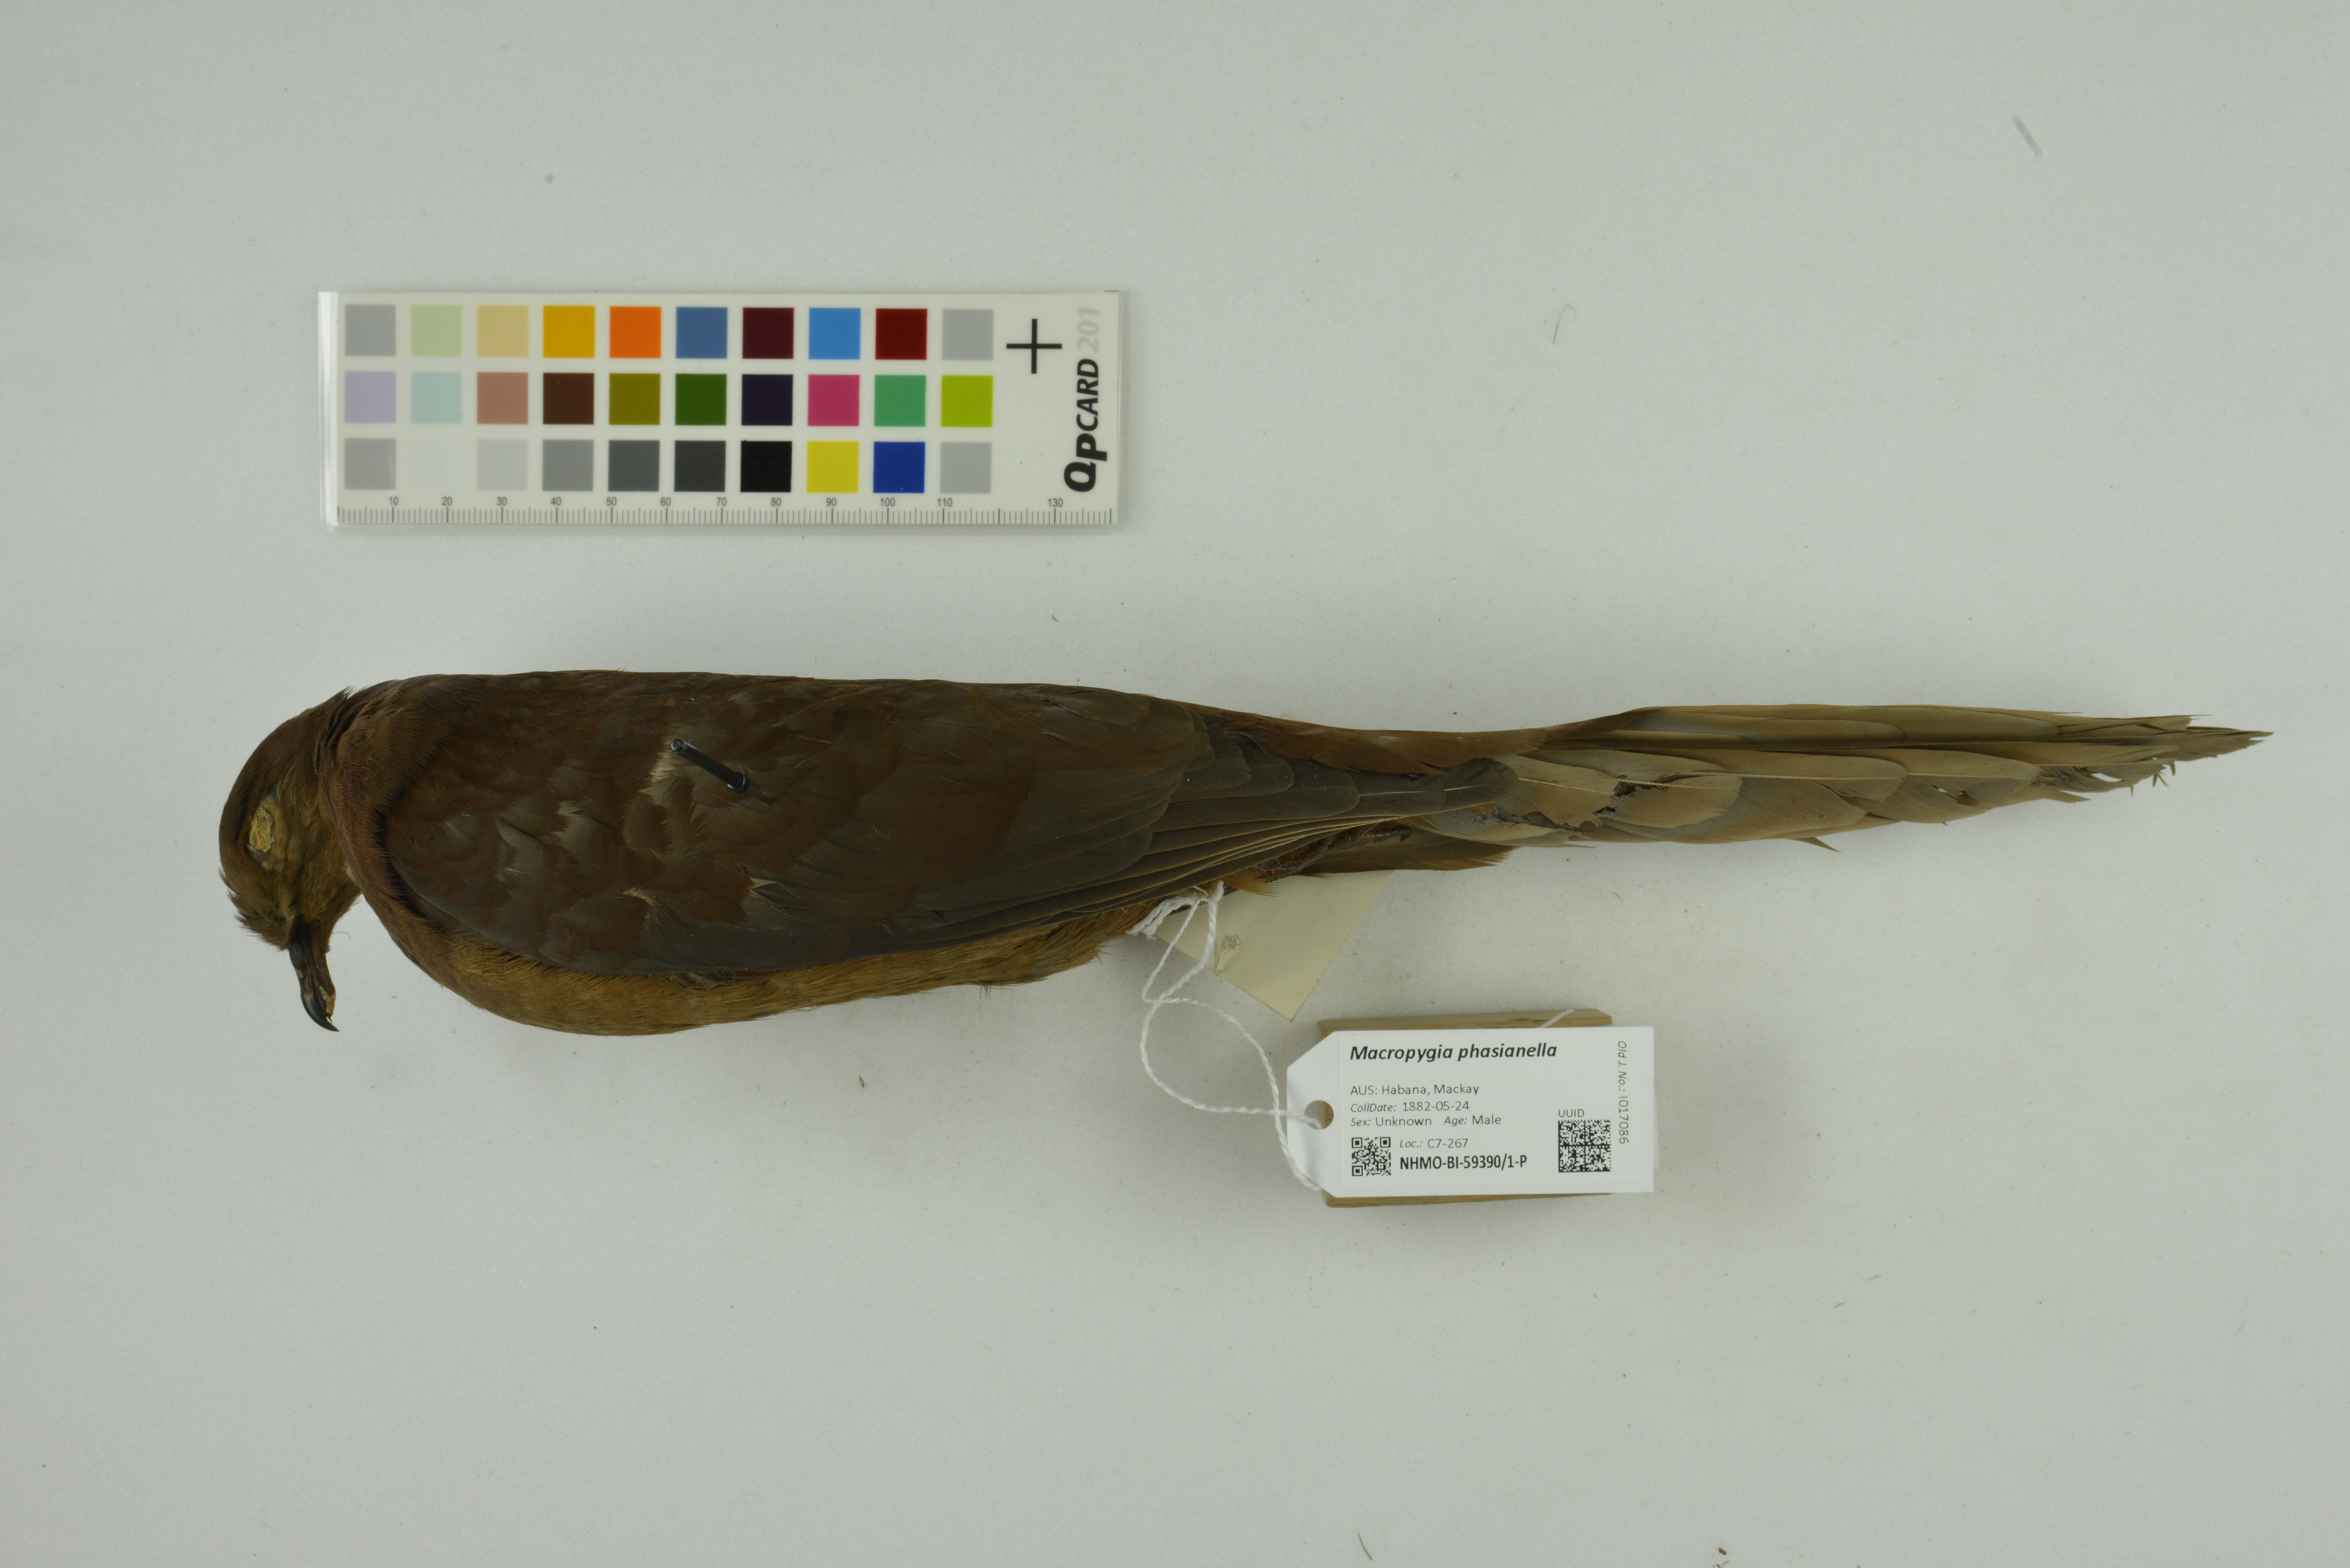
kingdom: Animalia
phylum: Chordata
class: Aves
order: Columbiformes
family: Columbidae
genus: Macropygia
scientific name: Macropygia phasianella
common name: Brown cuckoo-dove
